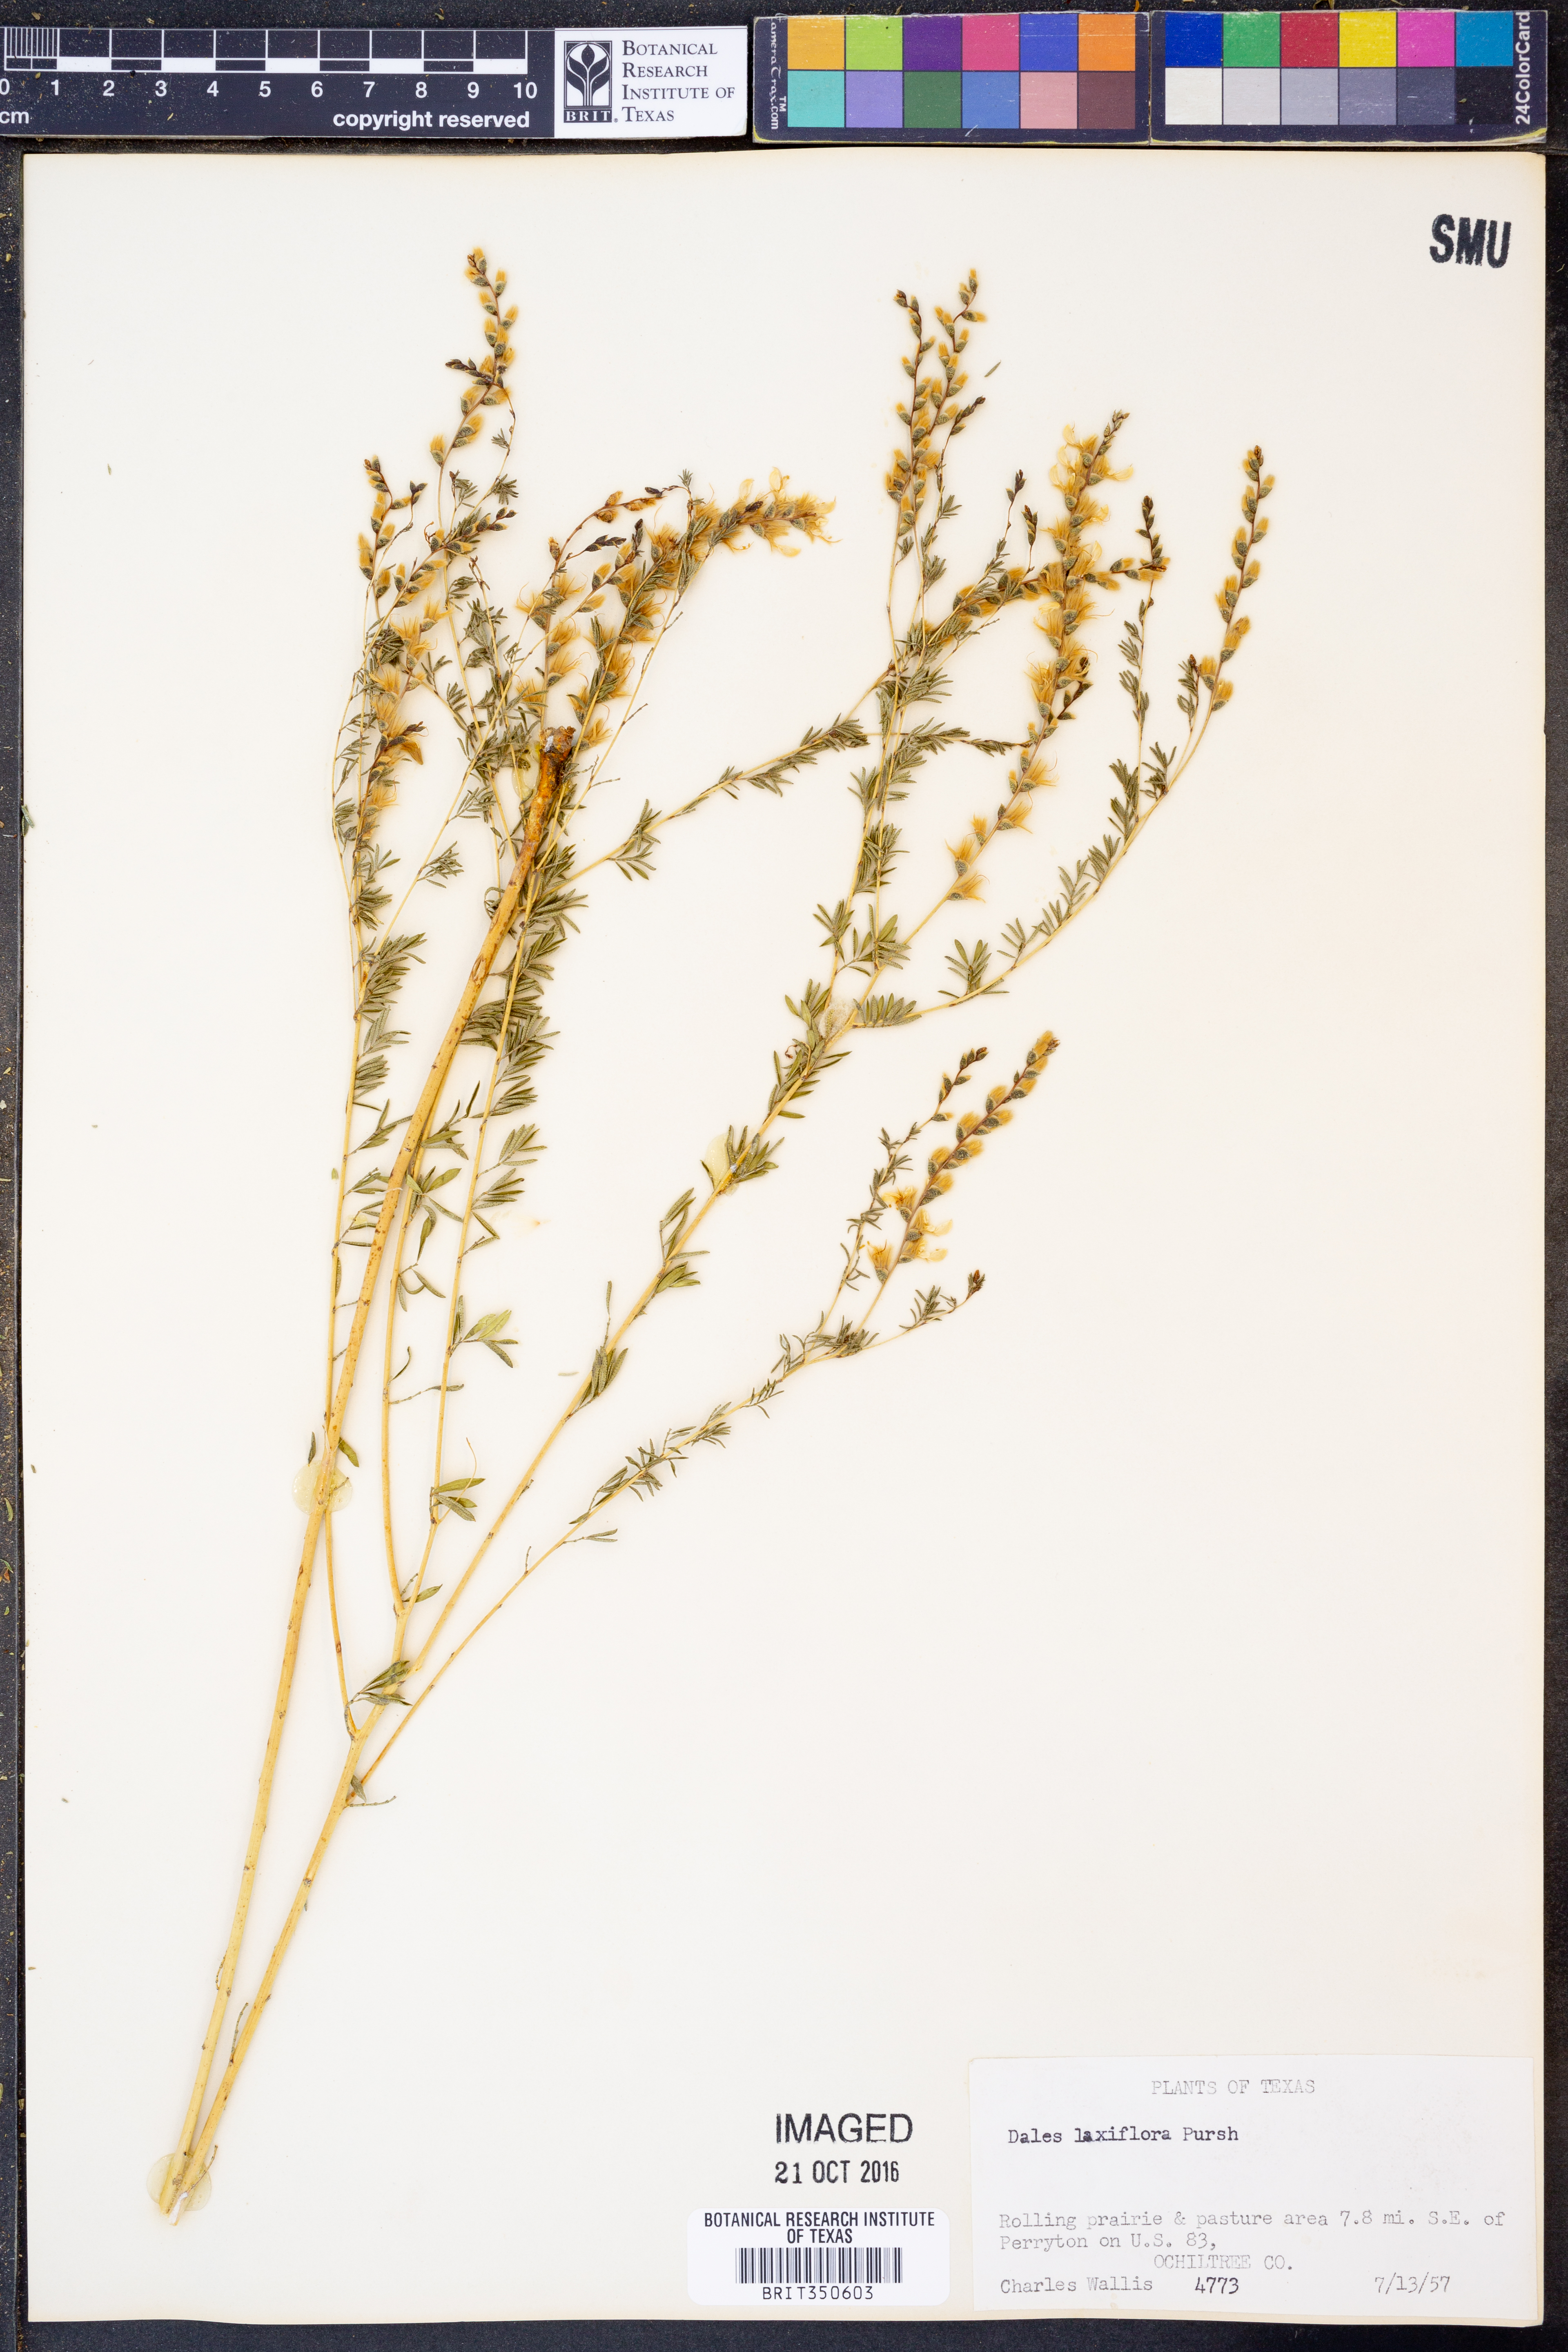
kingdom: Plantae
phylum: Tracheophyta
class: Magnoliopsida
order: Fabales
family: Fabaceae
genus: Dalea
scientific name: Dalea hegewischiana
